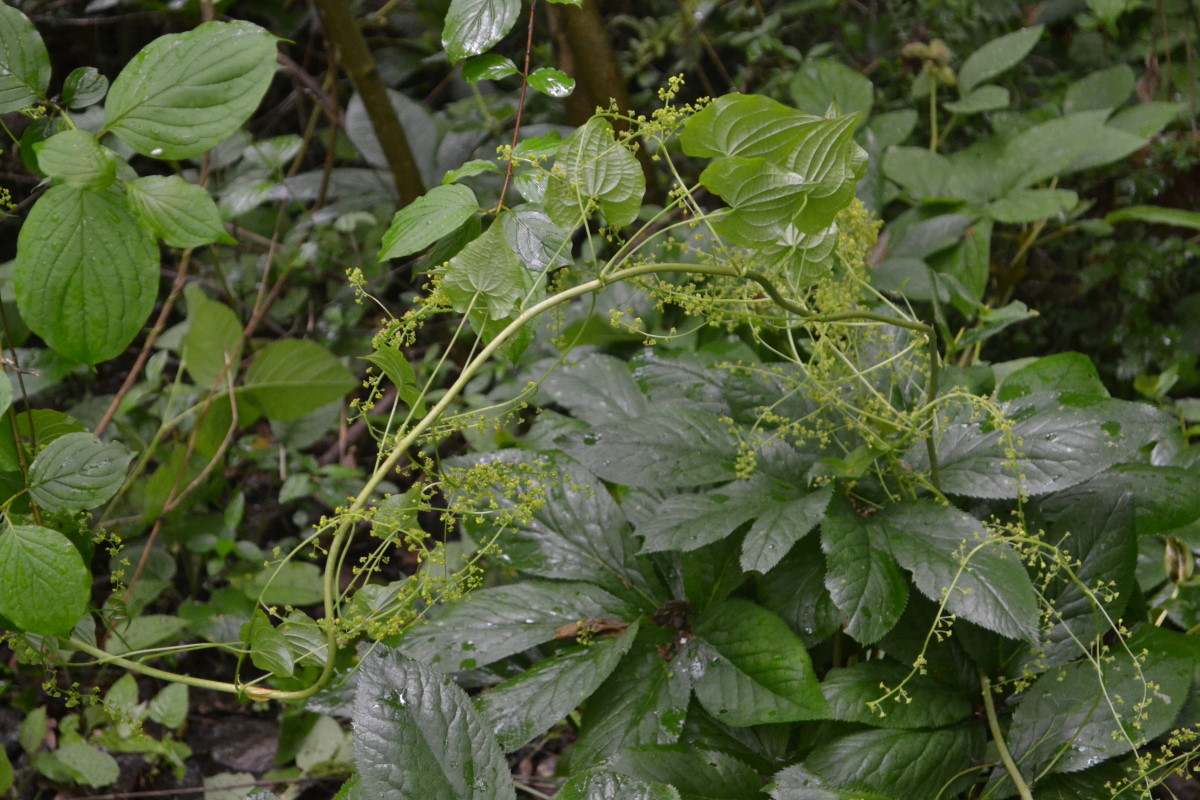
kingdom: Plantae
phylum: Tracheophyta
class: Liliopsida
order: Dioscoreales
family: Dioscoreaceae
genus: Dioscorea
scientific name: Dioscorea caucasica
